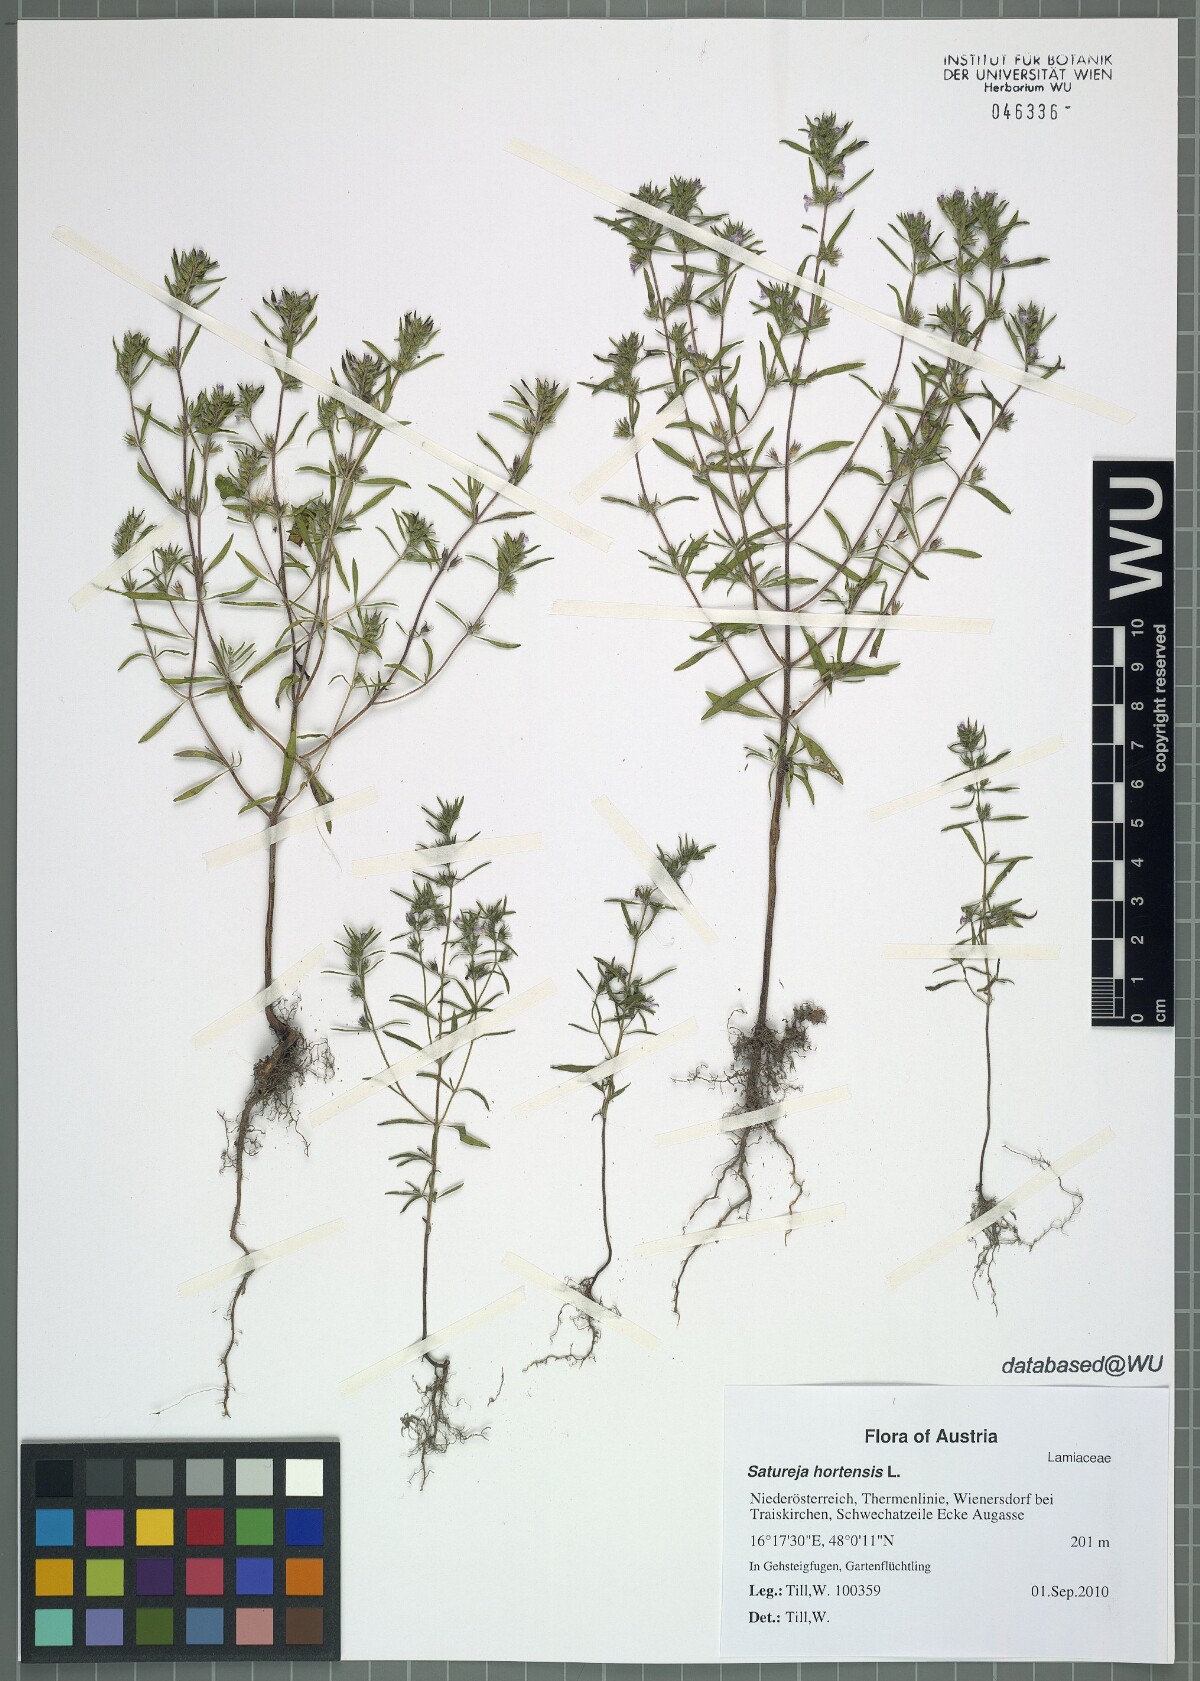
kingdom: Plantae
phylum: Tracheophyta
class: Magnoliopsida
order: Lamiales
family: Lamiaceae
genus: Satureja
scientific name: Satureja hortensis
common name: Summer savory
